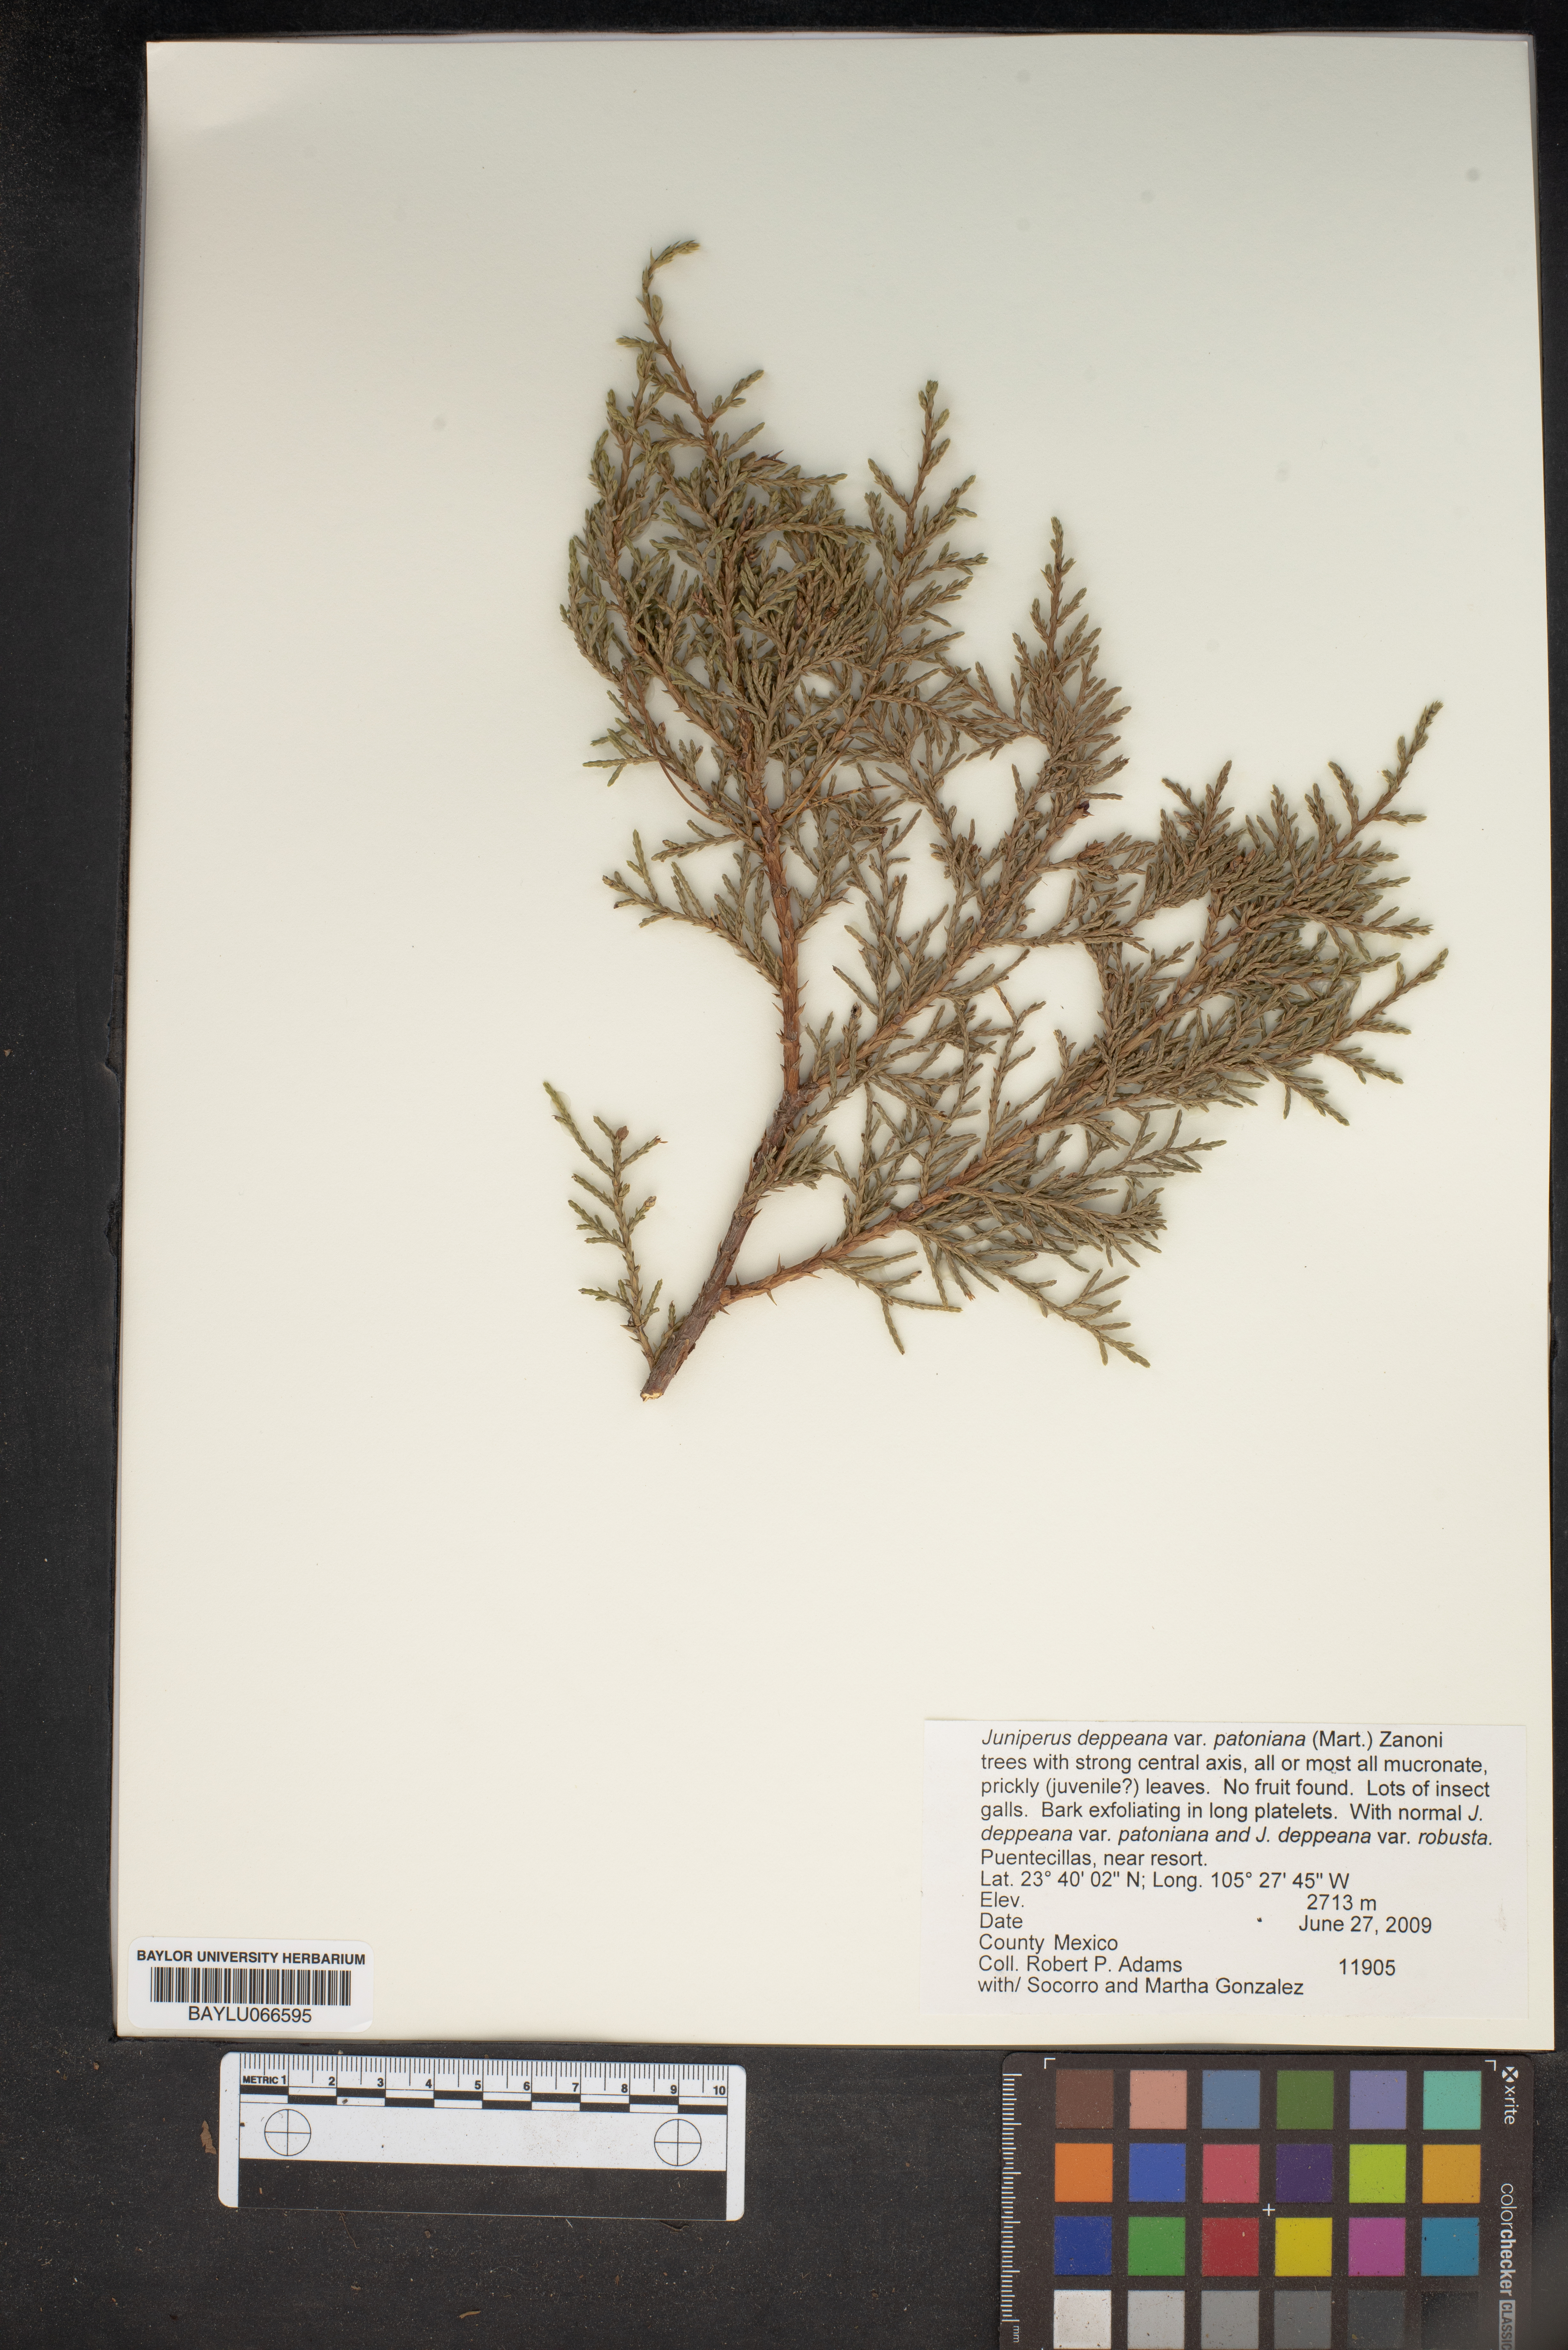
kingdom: Plantae
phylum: Tracheophyta
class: Pinopsida
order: Pinales
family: Cupressaceae
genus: Juniperus
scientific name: Juniperus deppeana
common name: Alligator juniper
